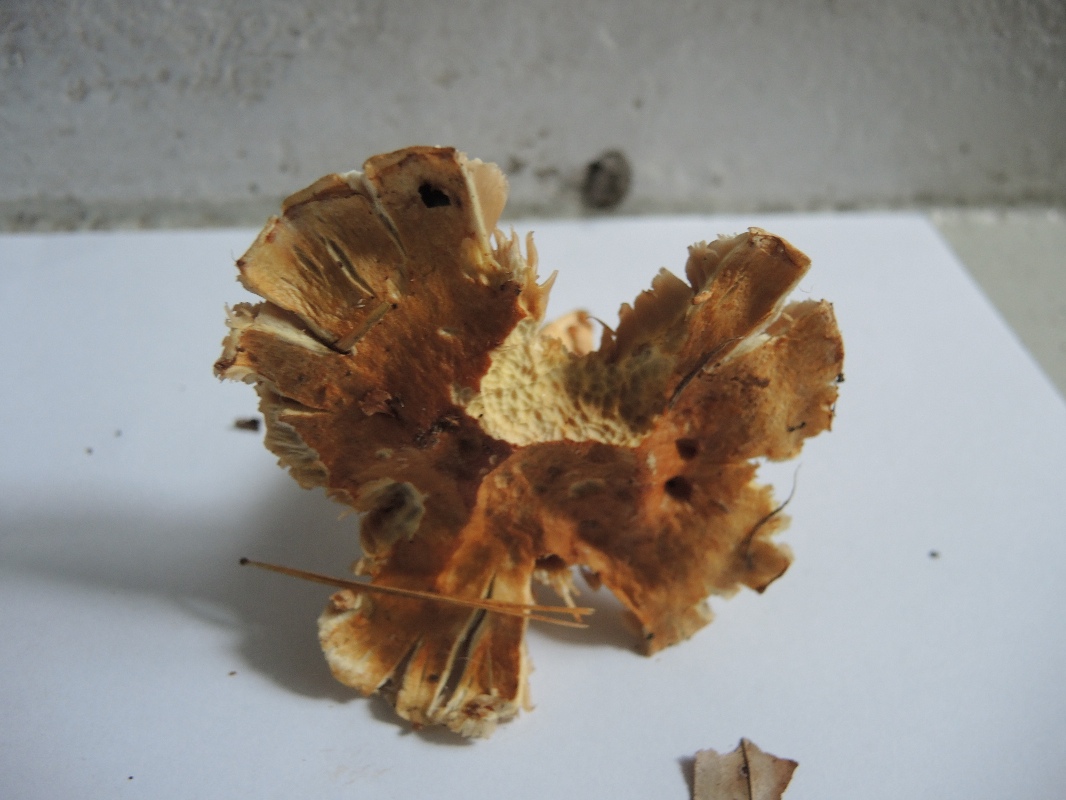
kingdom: Fungi
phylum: Basidiomycota
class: Agaricomycetes
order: Agaricales
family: Cortinariaceae
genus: Phlegmacium
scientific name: Phlegmacium triumphans
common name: gulbæltet slørhat
